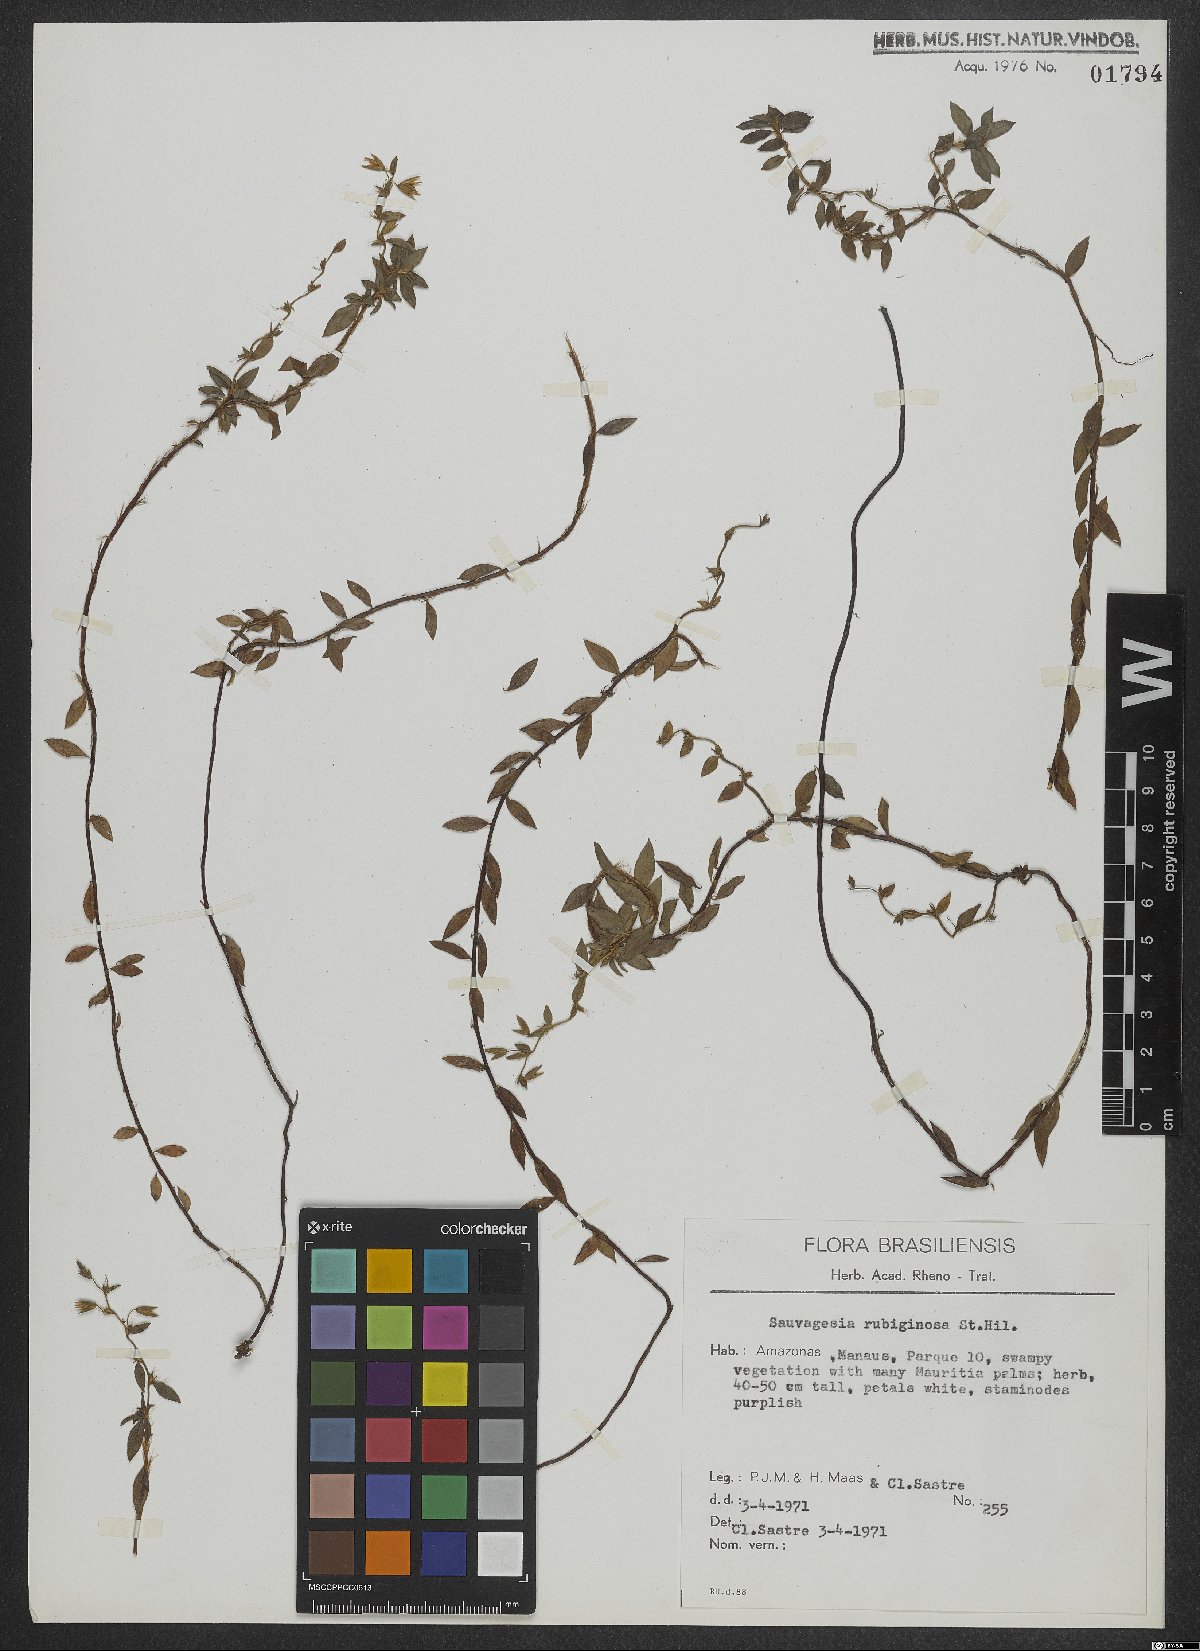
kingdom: Plantae
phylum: Tracheophyta
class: Magnoliopsida
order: Malpighiales
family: Ochnaceae
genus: Sauvagesia
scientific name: Sauvagesia rubiginosa
